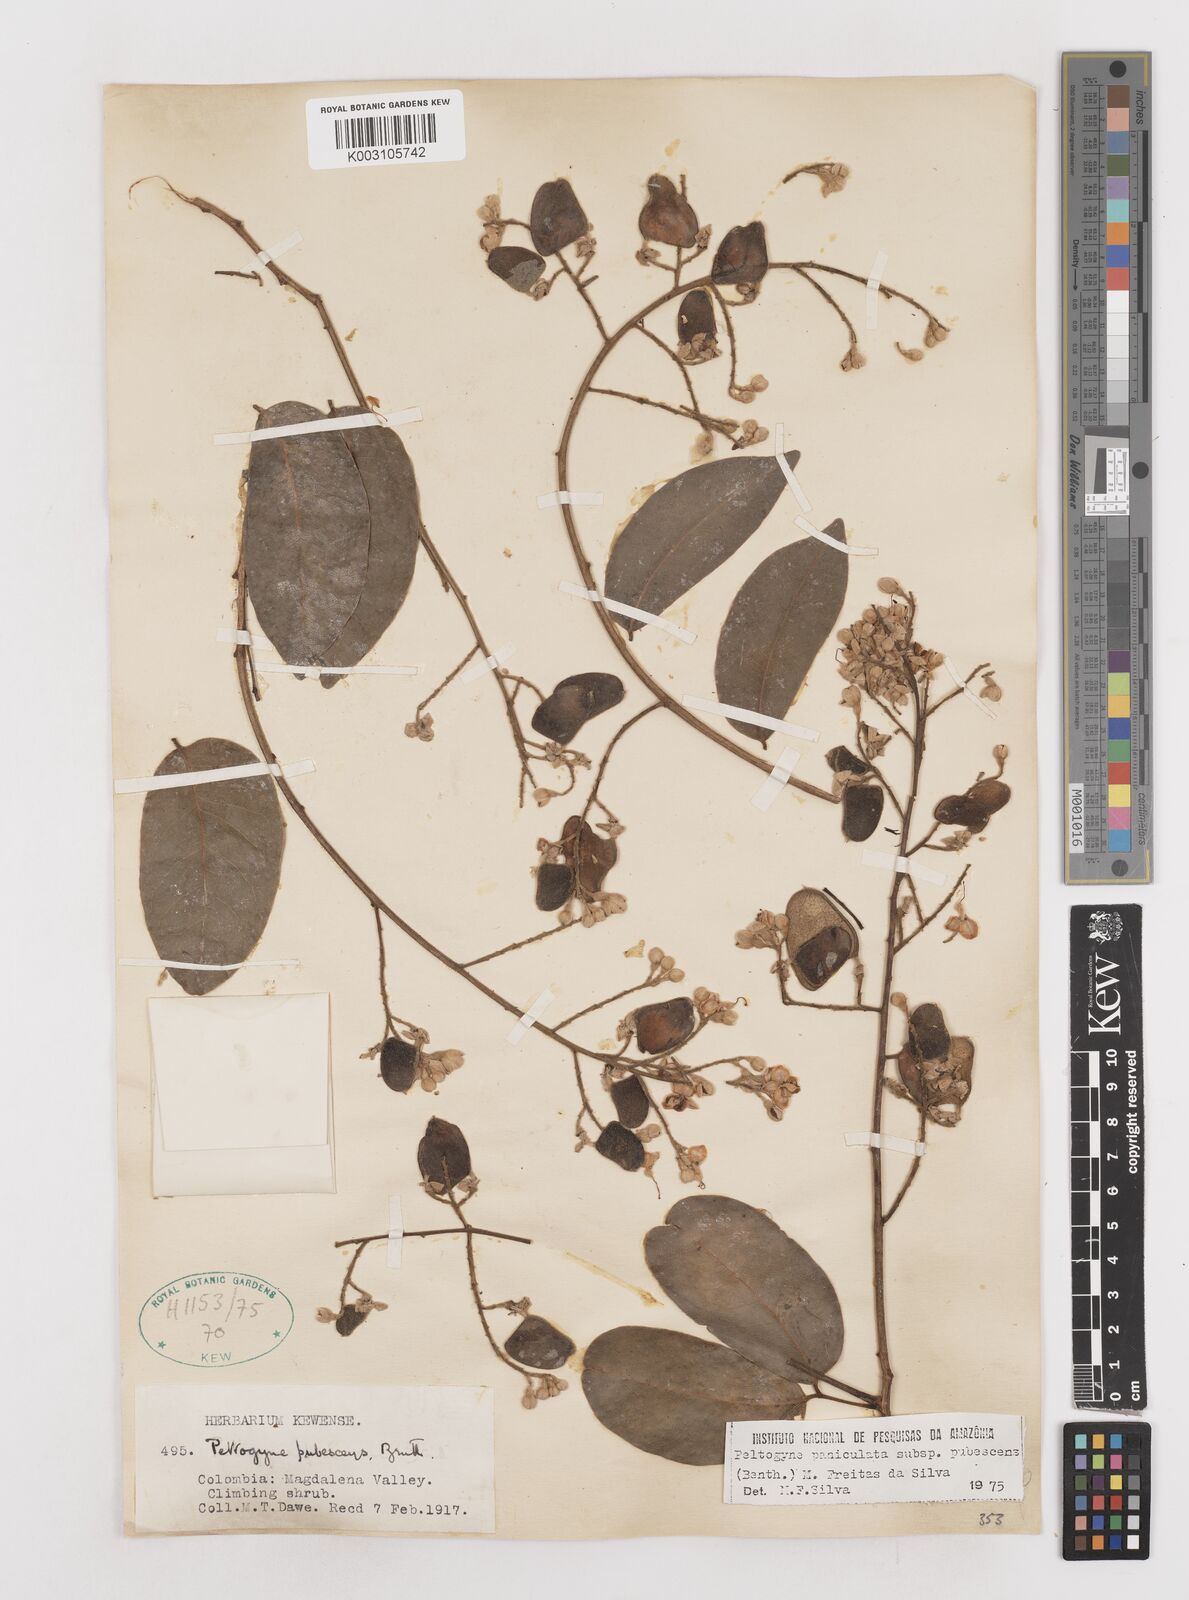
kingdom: Plantae
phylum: Tracheophyta
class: Magnoliopsida
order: Fabales
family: Fabaceae
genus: Peltogyne
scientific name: Peltogyne paniculata
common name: Purpleheart
